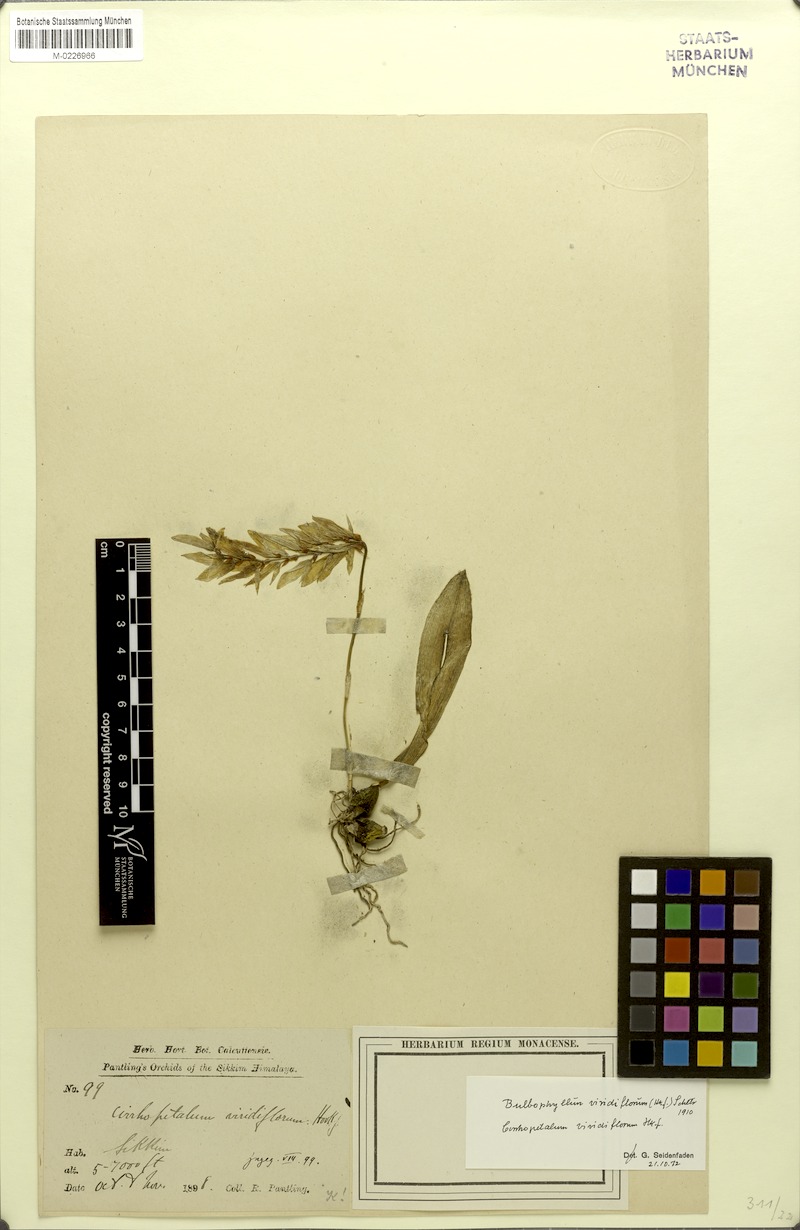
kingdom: Plantae
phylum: Tracheophyta
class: Liliopsida
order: Asparagales
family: Orchidaceae
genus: Bulbophyllum
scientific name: Bulbophyllum viridiflorum
